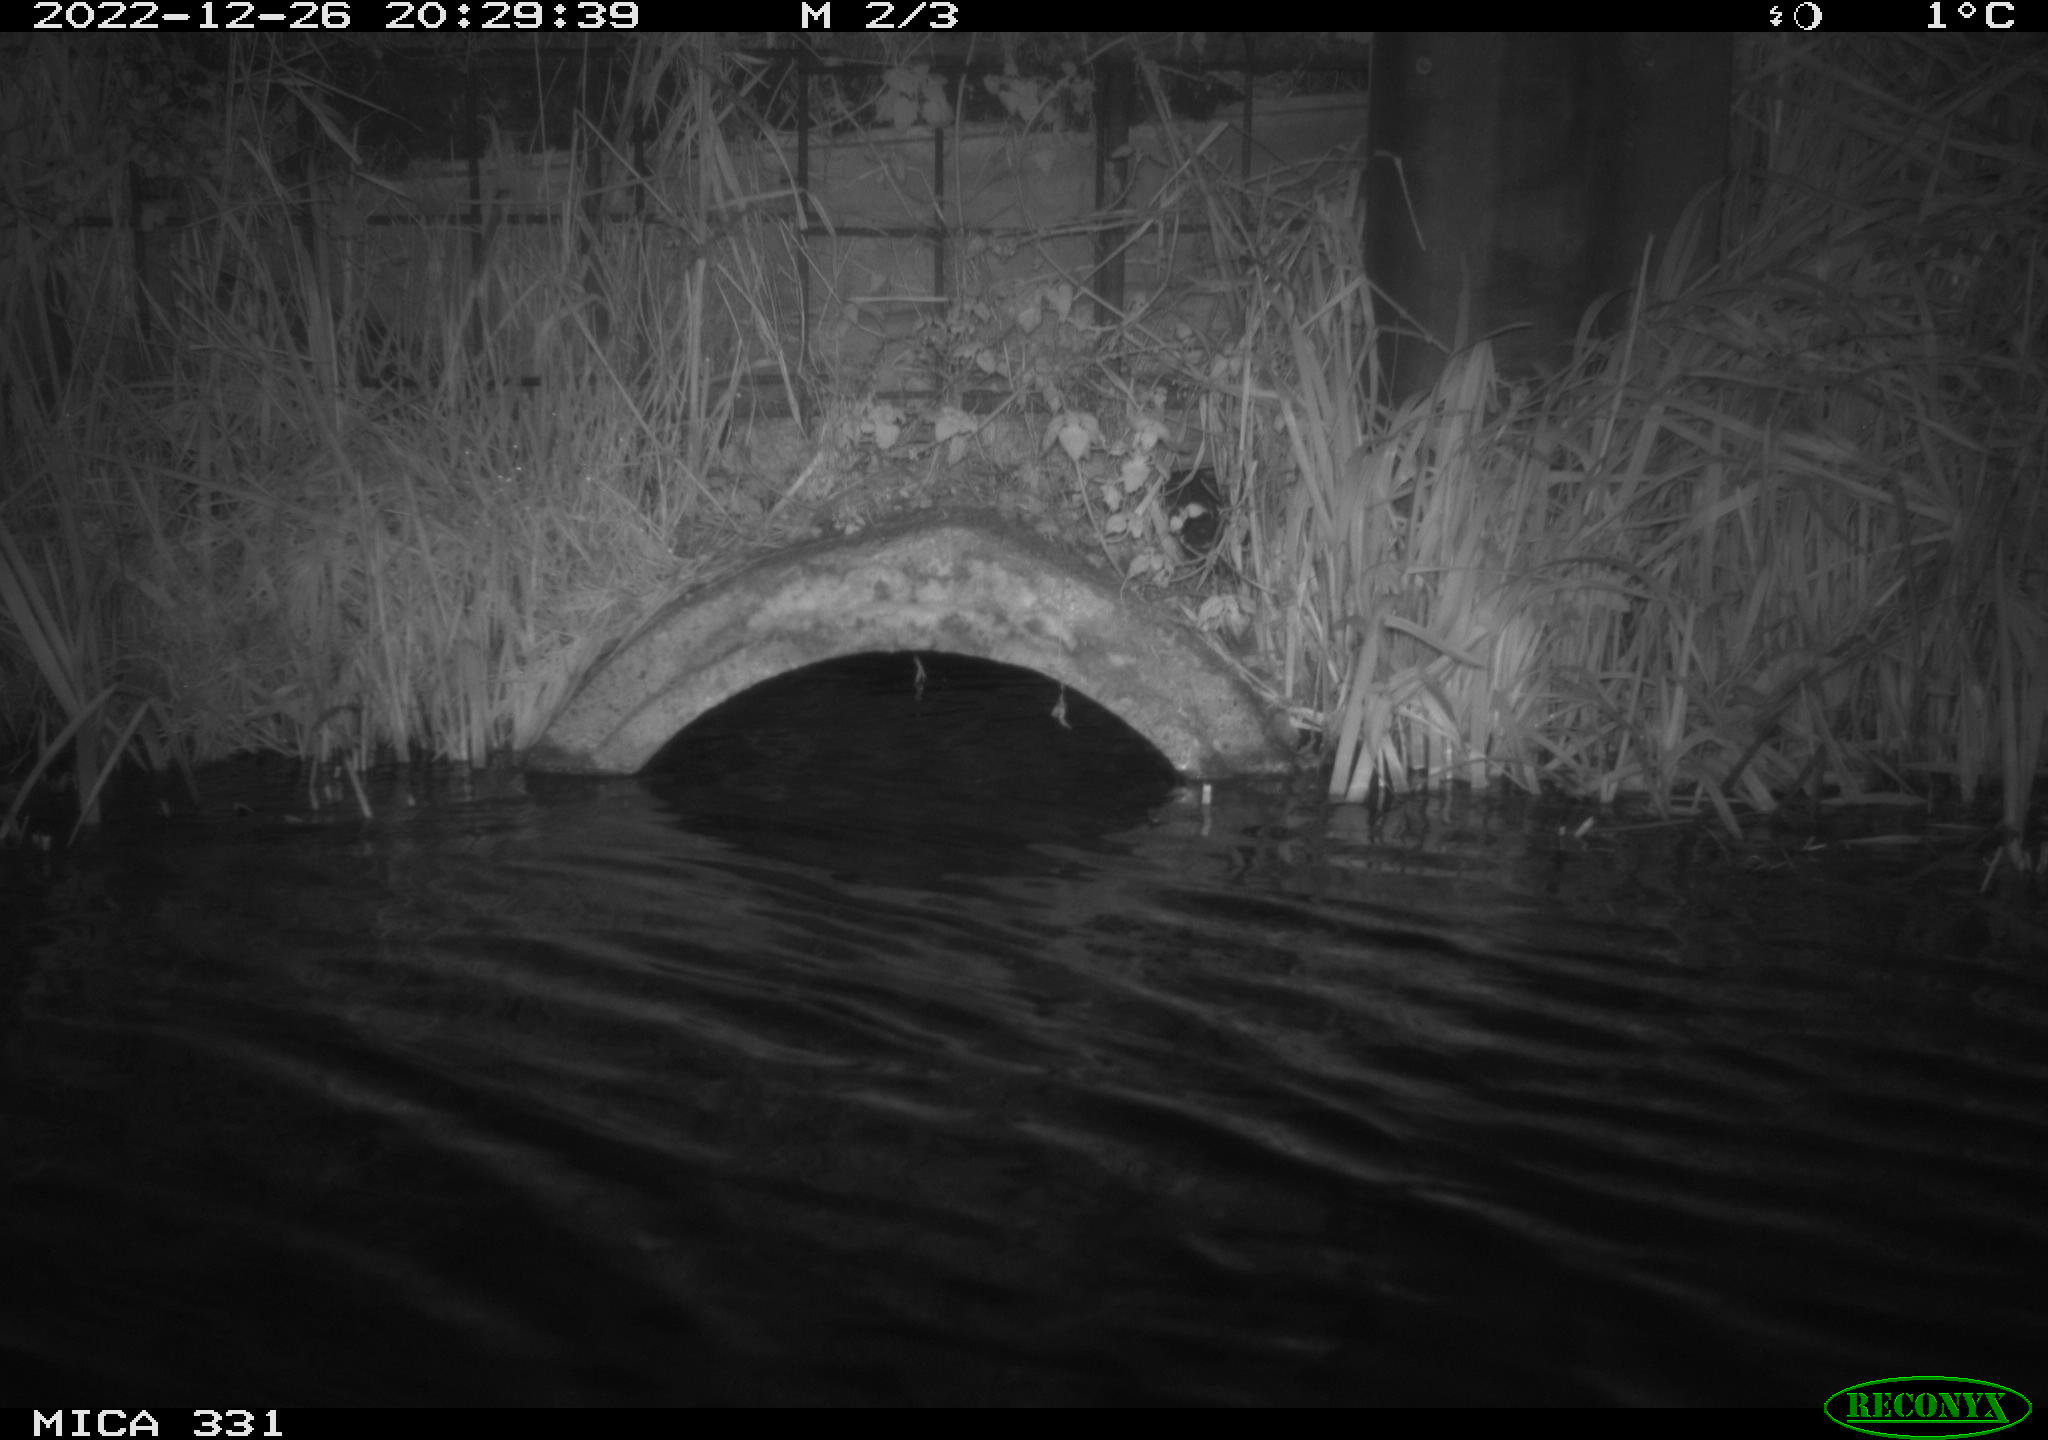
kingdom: Animalia
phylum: Chordata
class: Mammalia
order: Rodentia
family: Muridae
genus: Rattus
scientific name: Rattus norvegicus
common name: Brown rat
